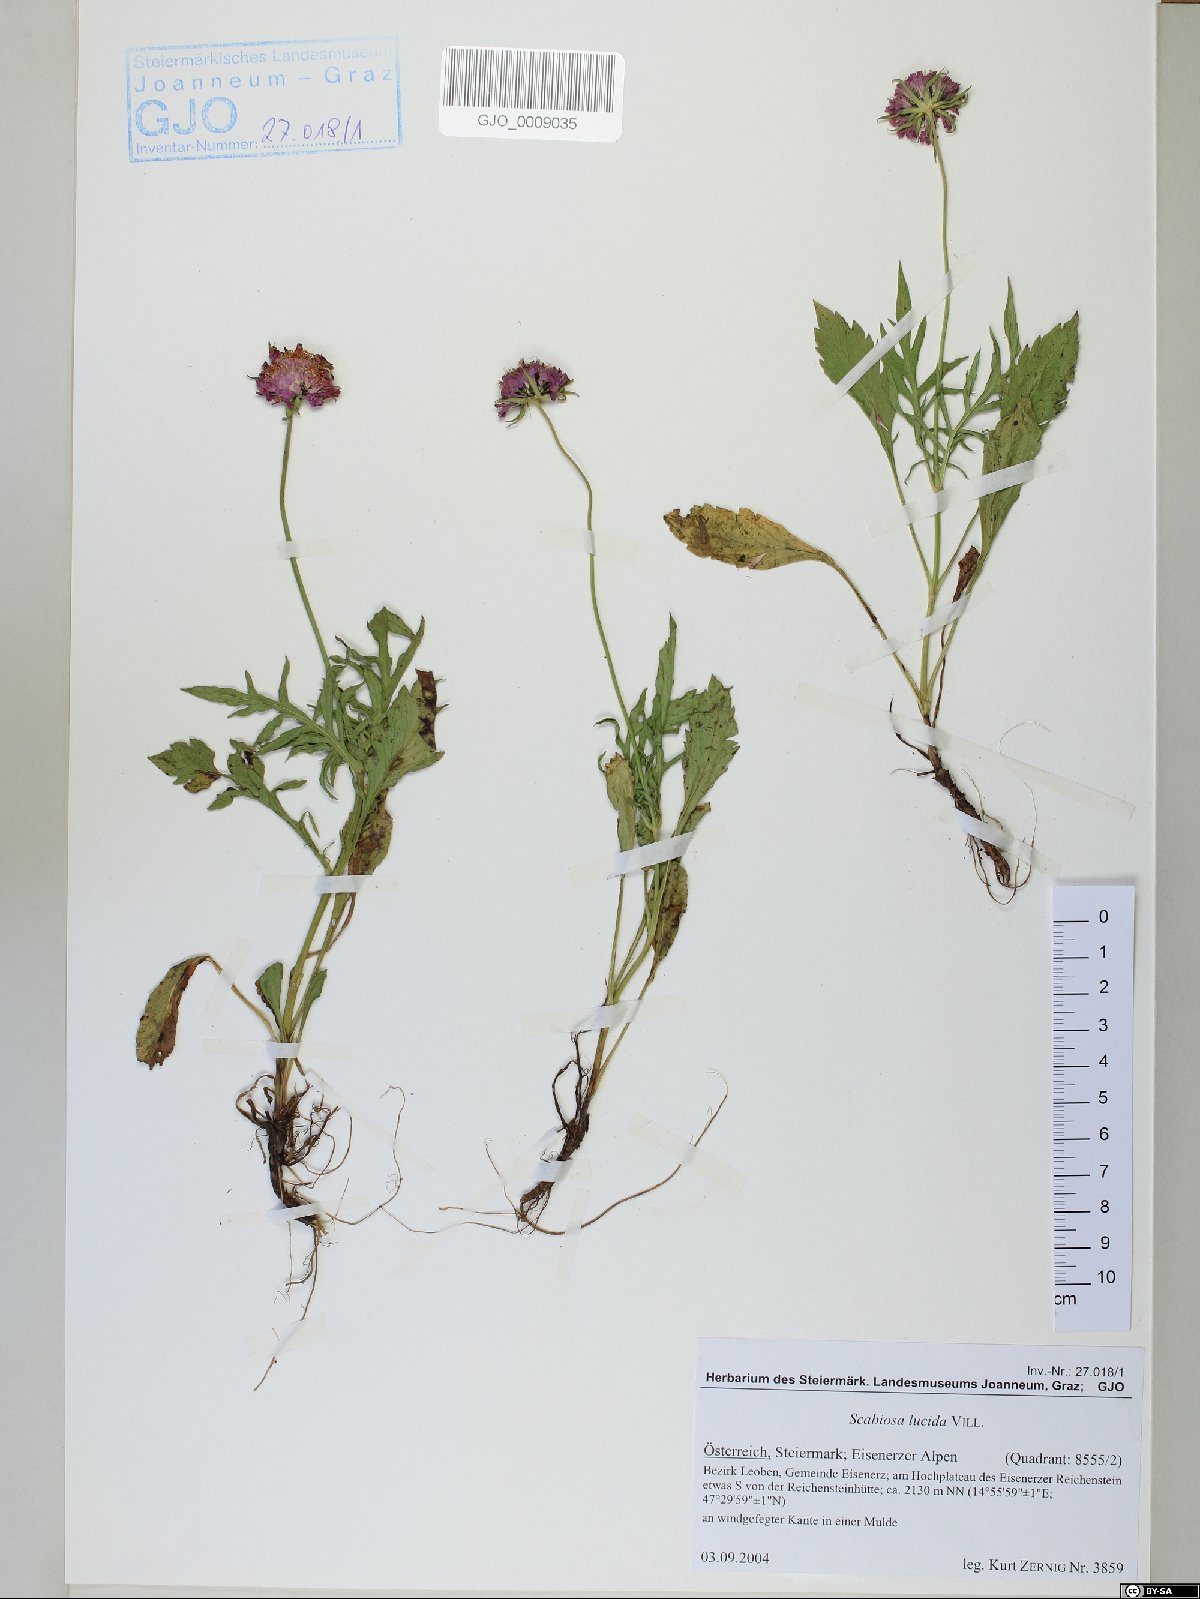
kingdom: Plantae
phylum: Tracheophyta
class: Magnoliopsida
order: Dipsacales
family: Caprifoliaceae
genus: Scabiosa
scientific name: Scabiosa lucida
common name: Shining scabious
